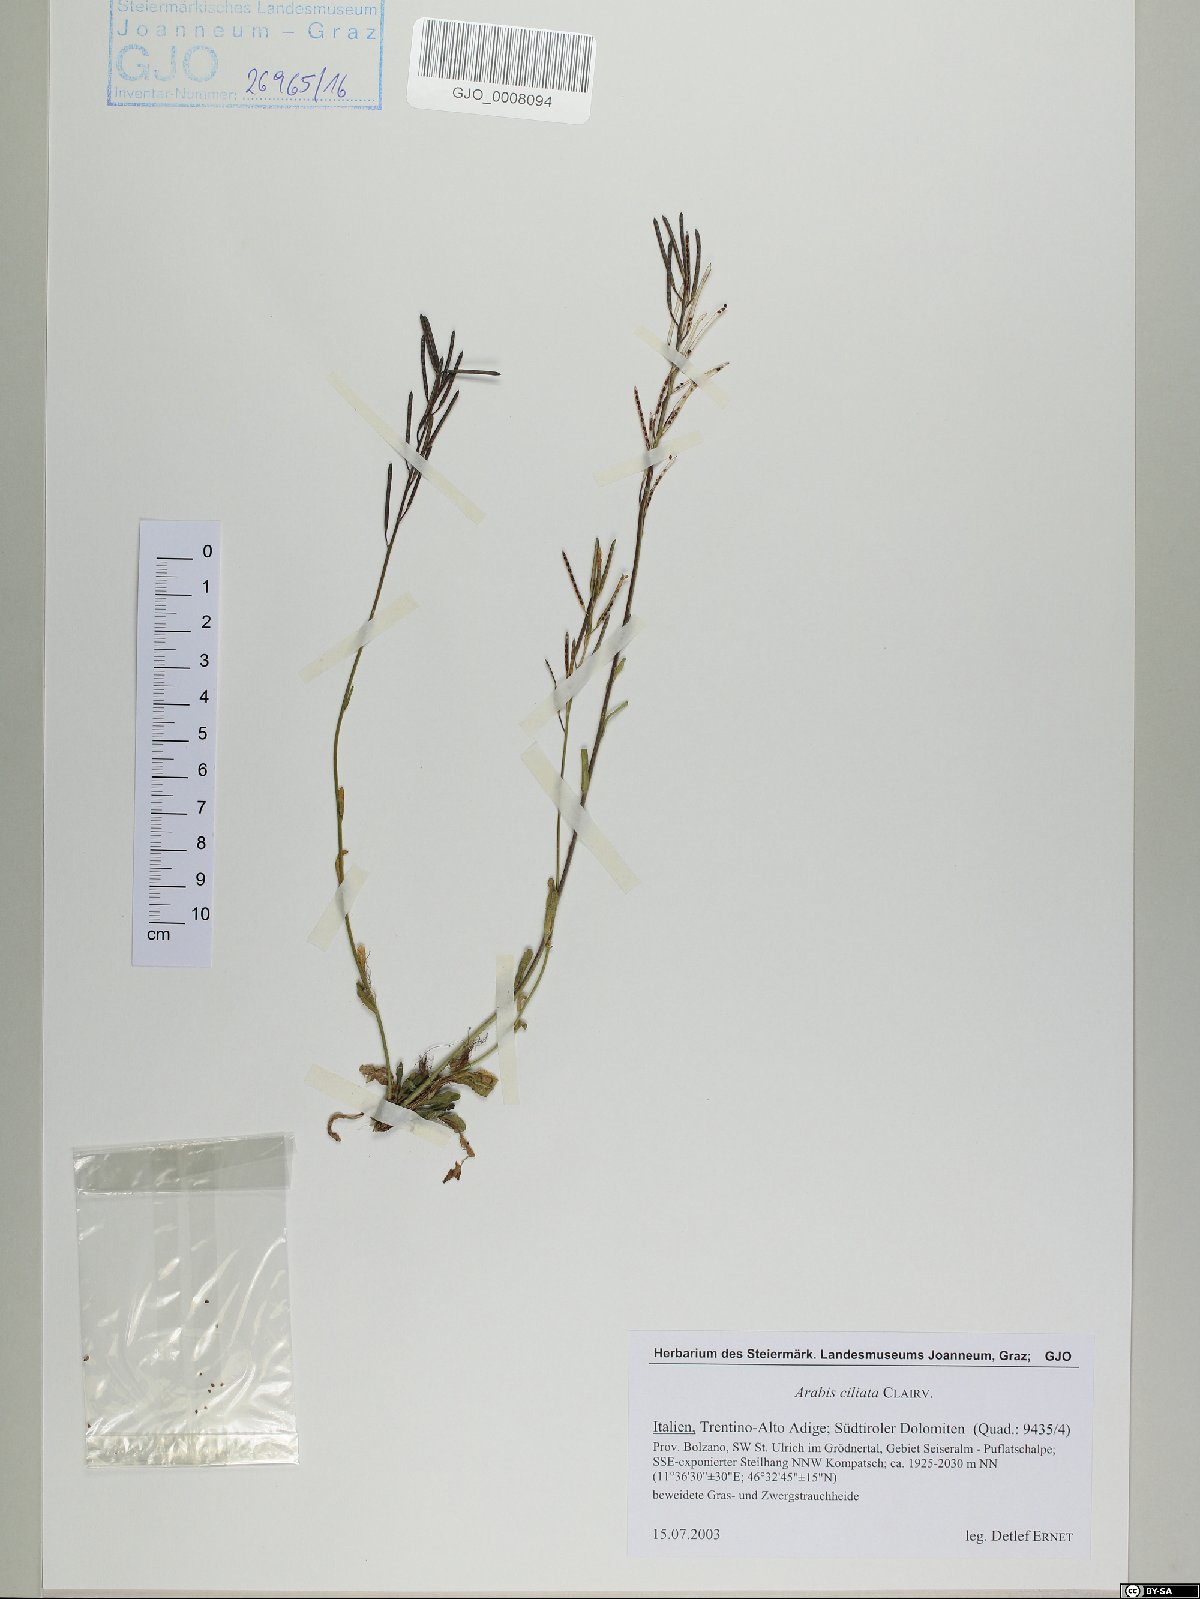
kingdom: Plantae
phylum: Tracheophyta
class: Magnoliopsida
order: Brassicales
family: Brassicaceae
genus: Arabis
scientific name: Arabis ciliata
